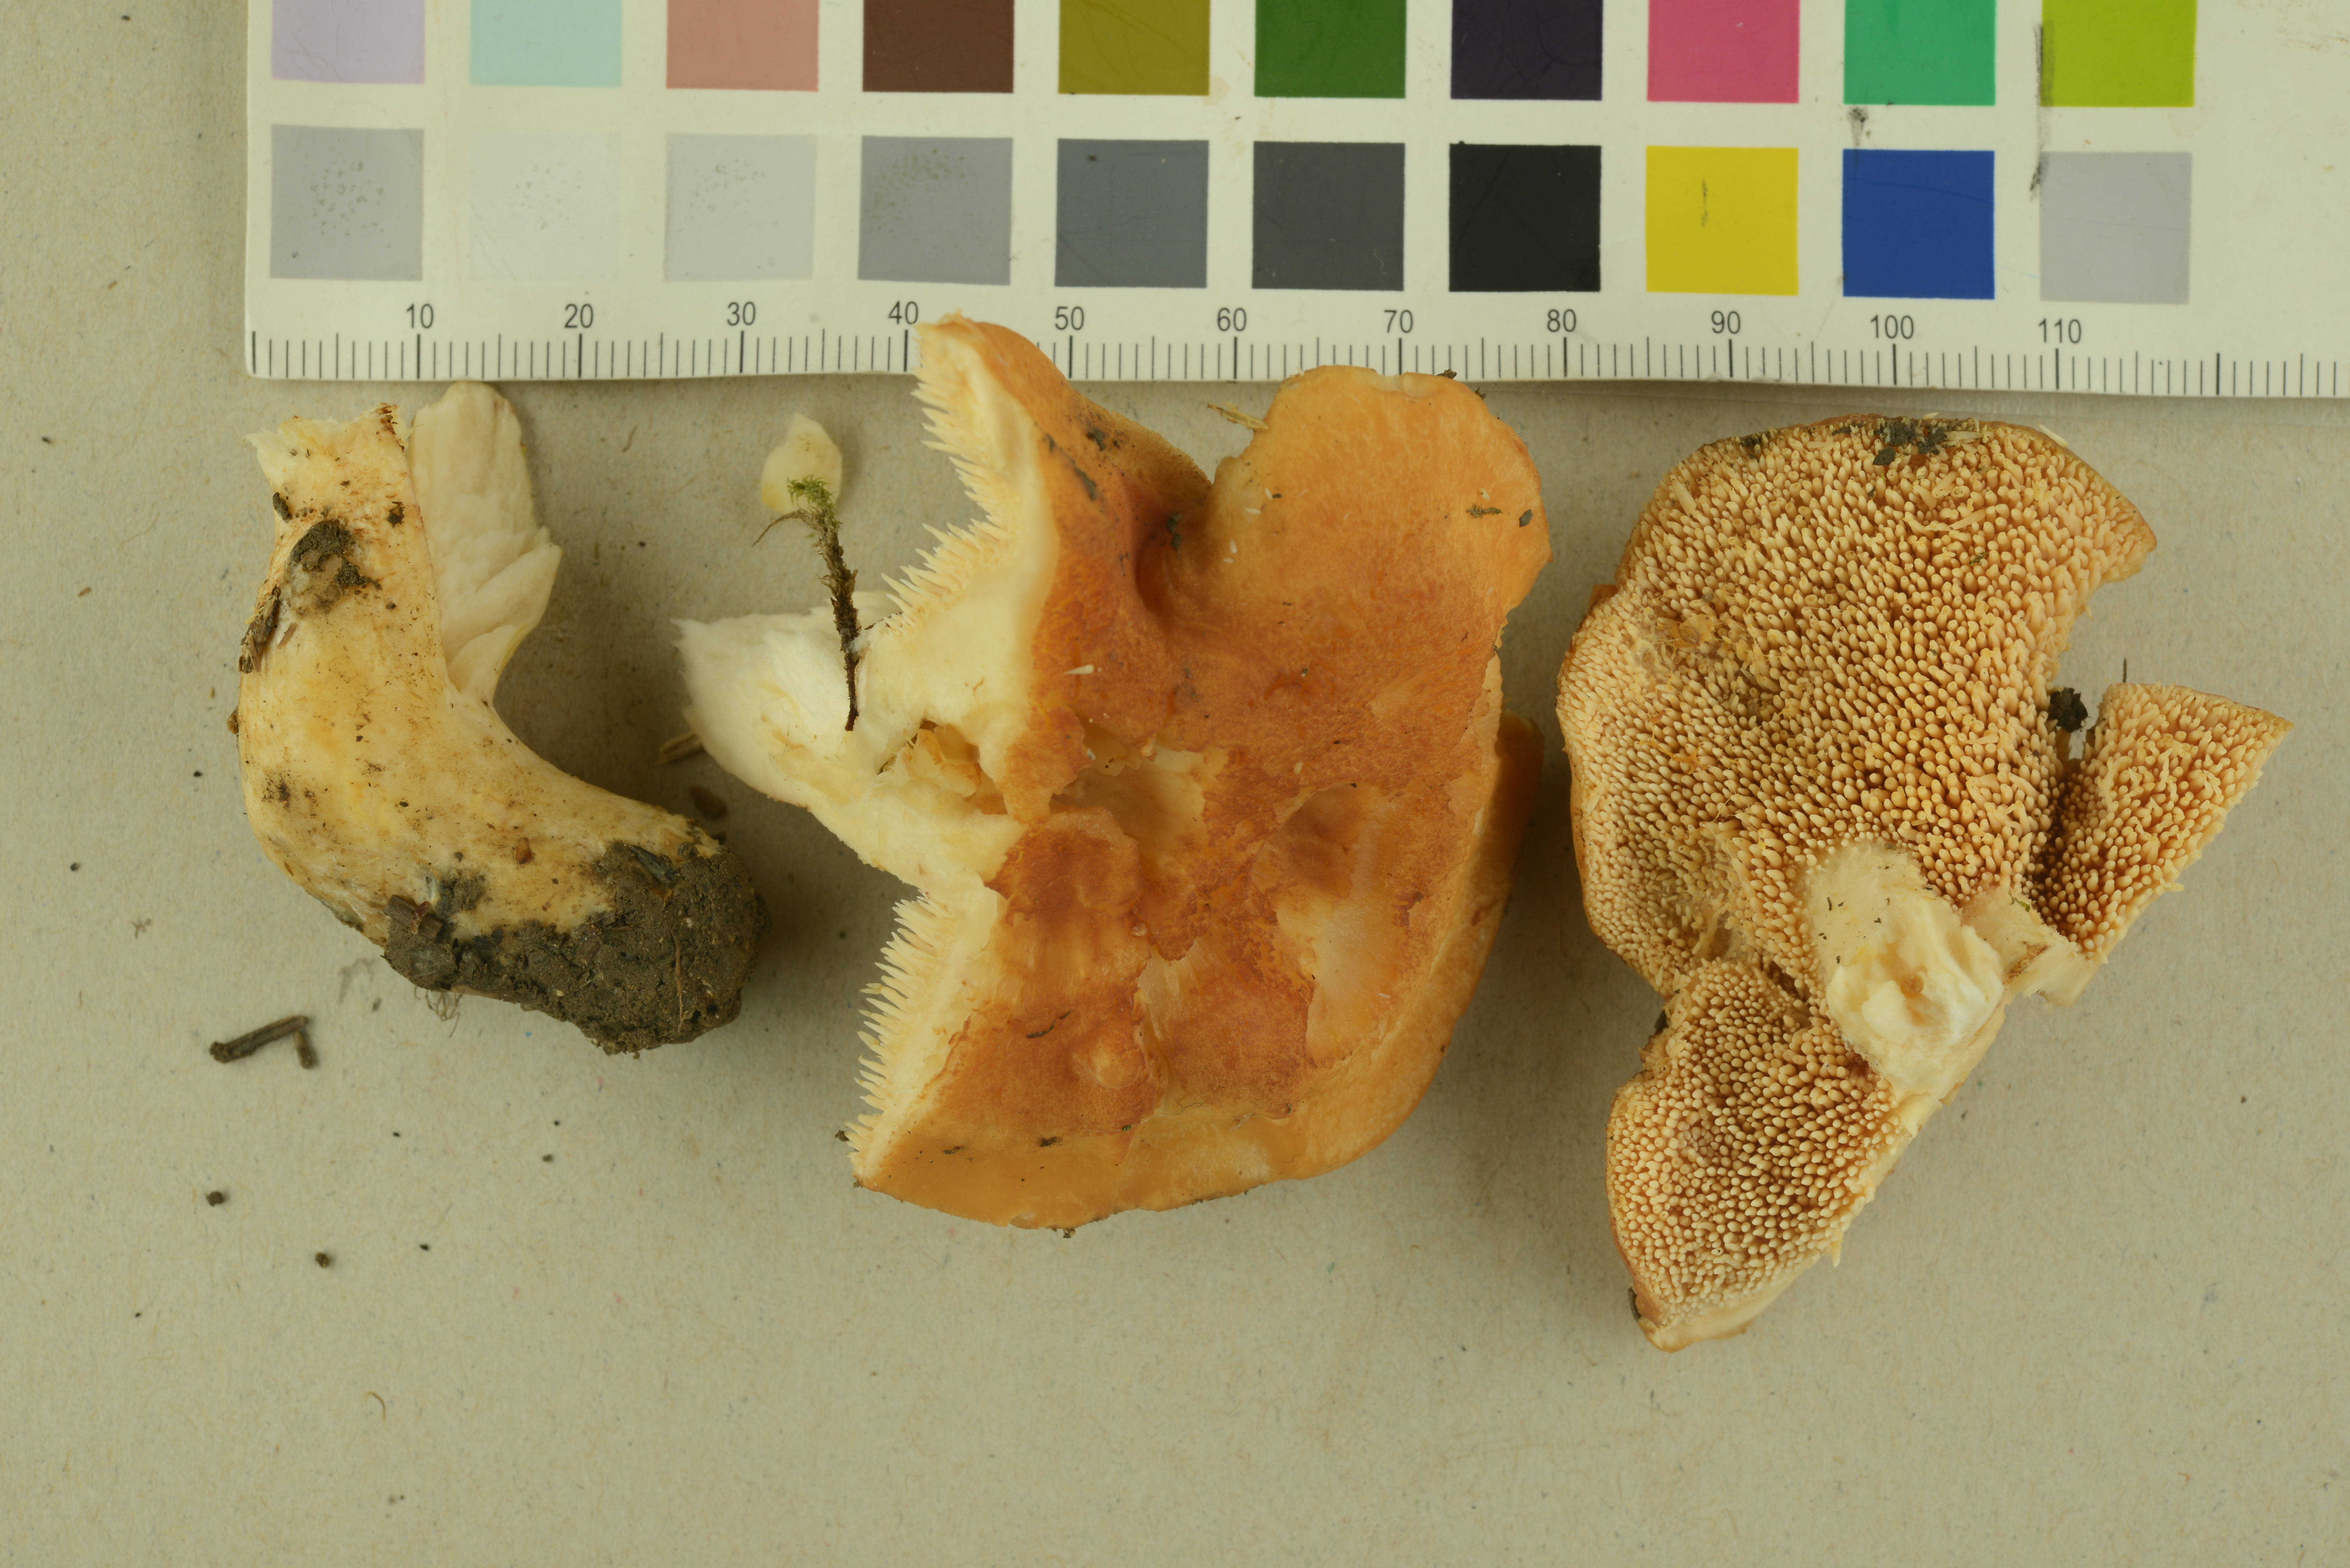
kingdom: Fungi
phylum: Basidiomycota
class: Agaricomycetes
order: Cantharellales
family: Hydnaceae
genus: Hydnum
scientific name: Hydnum rufescens
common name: Terracotta hedgehog
